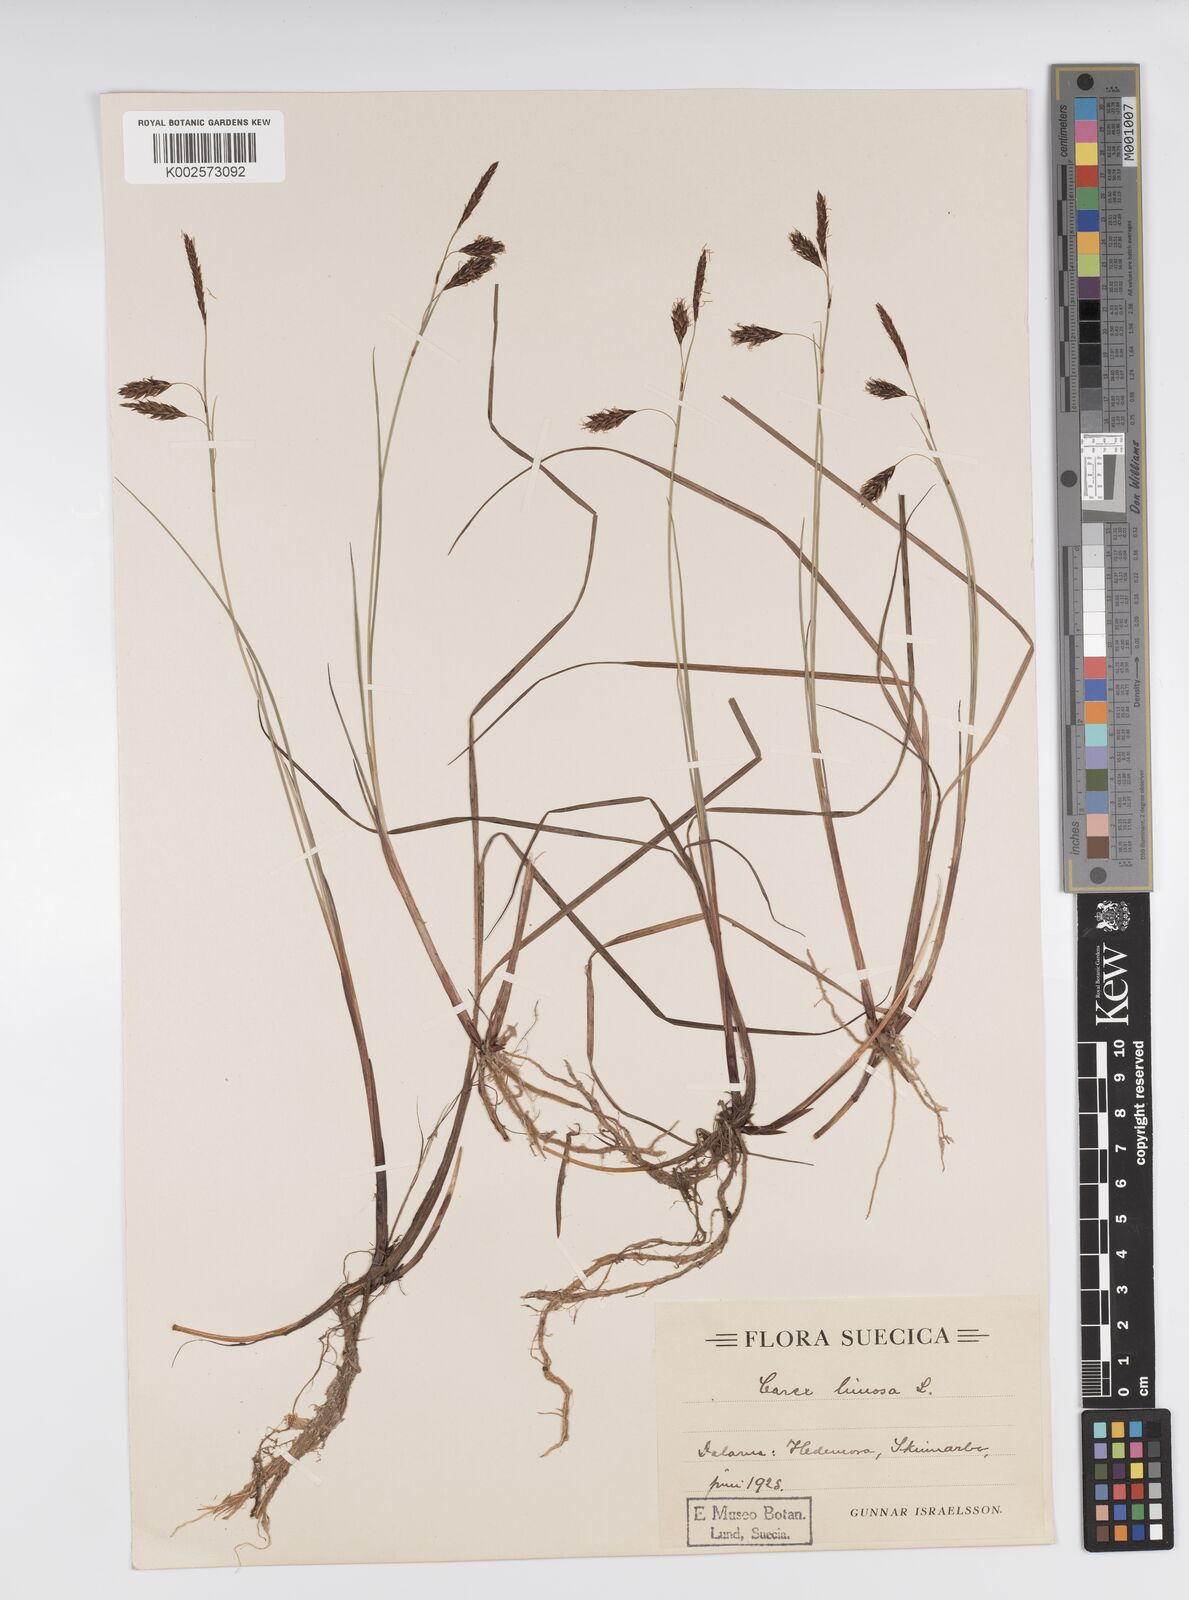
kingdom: Plantae
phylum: Tracheophyta
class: Liliopsida
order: Poales
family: Cyperaceae
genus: Carex
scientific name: Carex limosa
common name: Bog sedge
